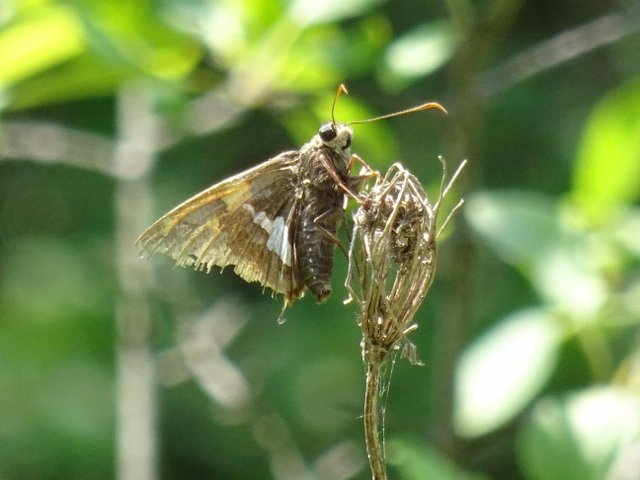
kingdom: Animalia
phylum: Arthropoda
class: Insecta
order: Lepidoptera
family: Hesperiidae
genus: Epargyreus
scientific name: Epargyreus clarus
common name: Silver-spotted Skipper
